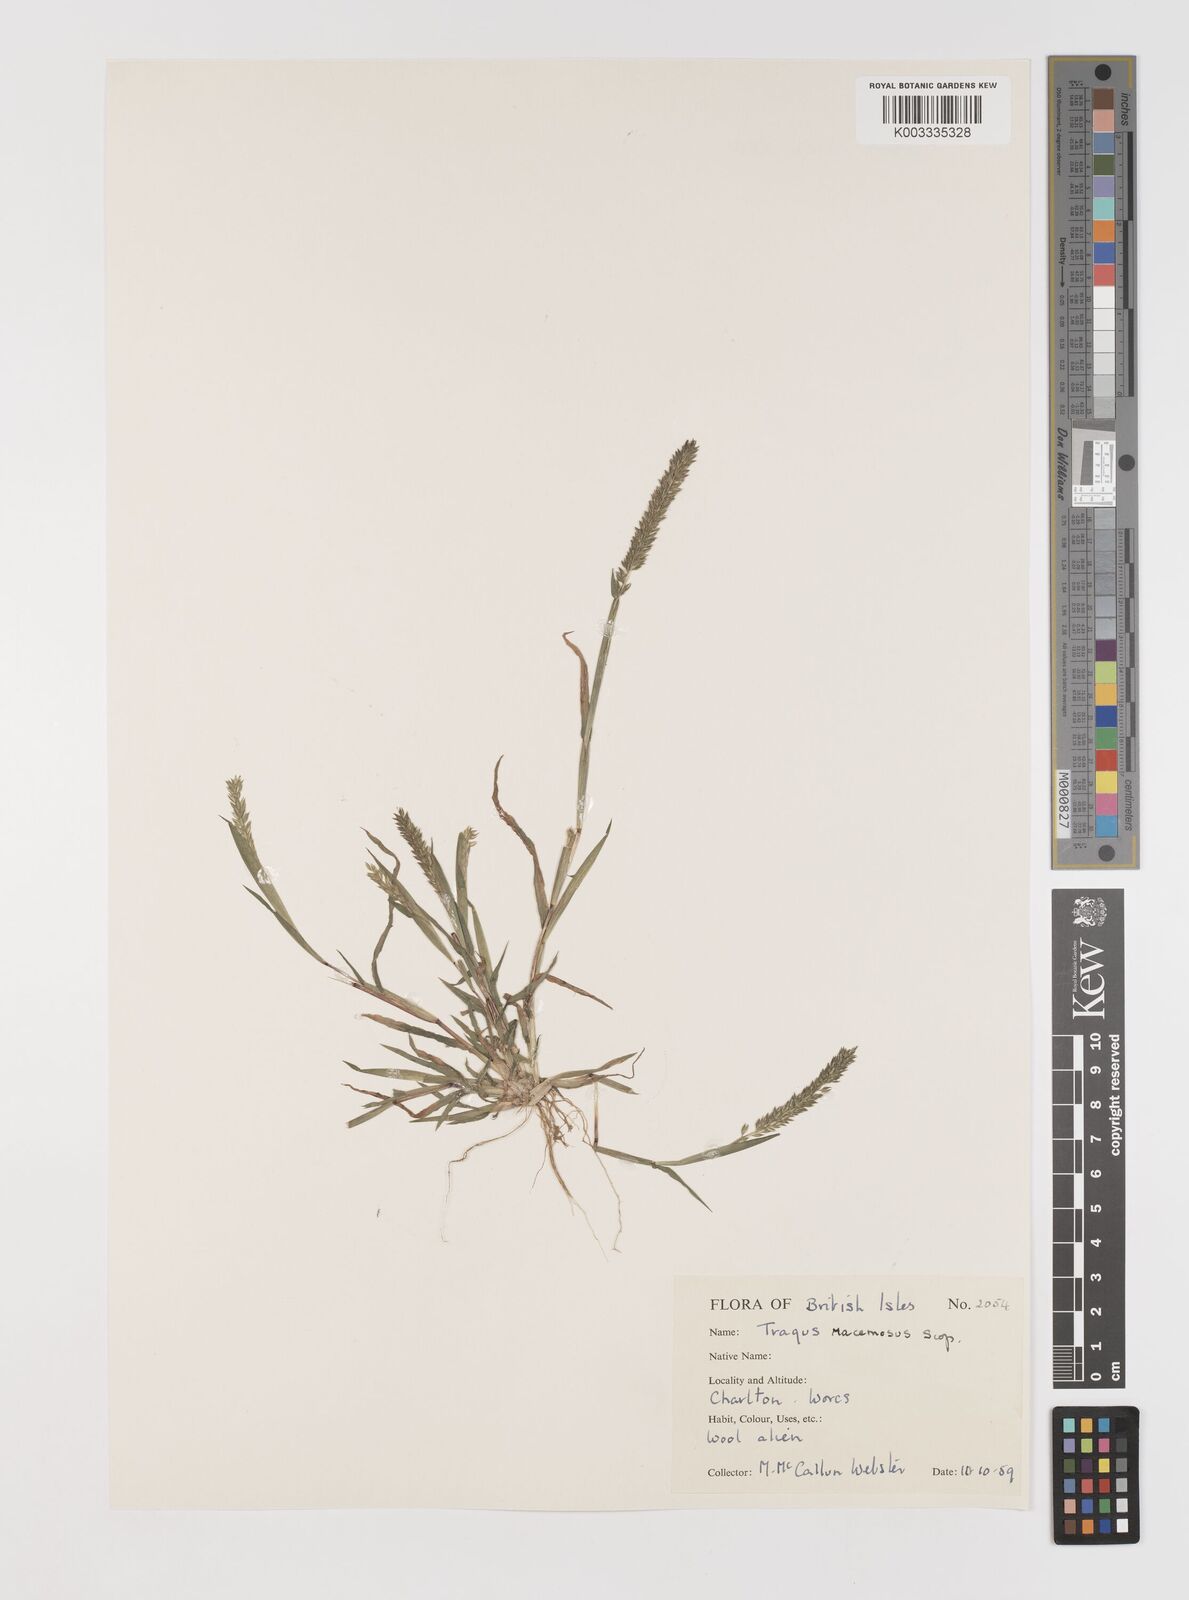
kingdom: Plantae
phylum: Tracheophyta
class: Liliopsida
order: Poales
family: Poaceae
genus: Tragus
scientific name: Tragus racemosus
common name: European bur-grass
